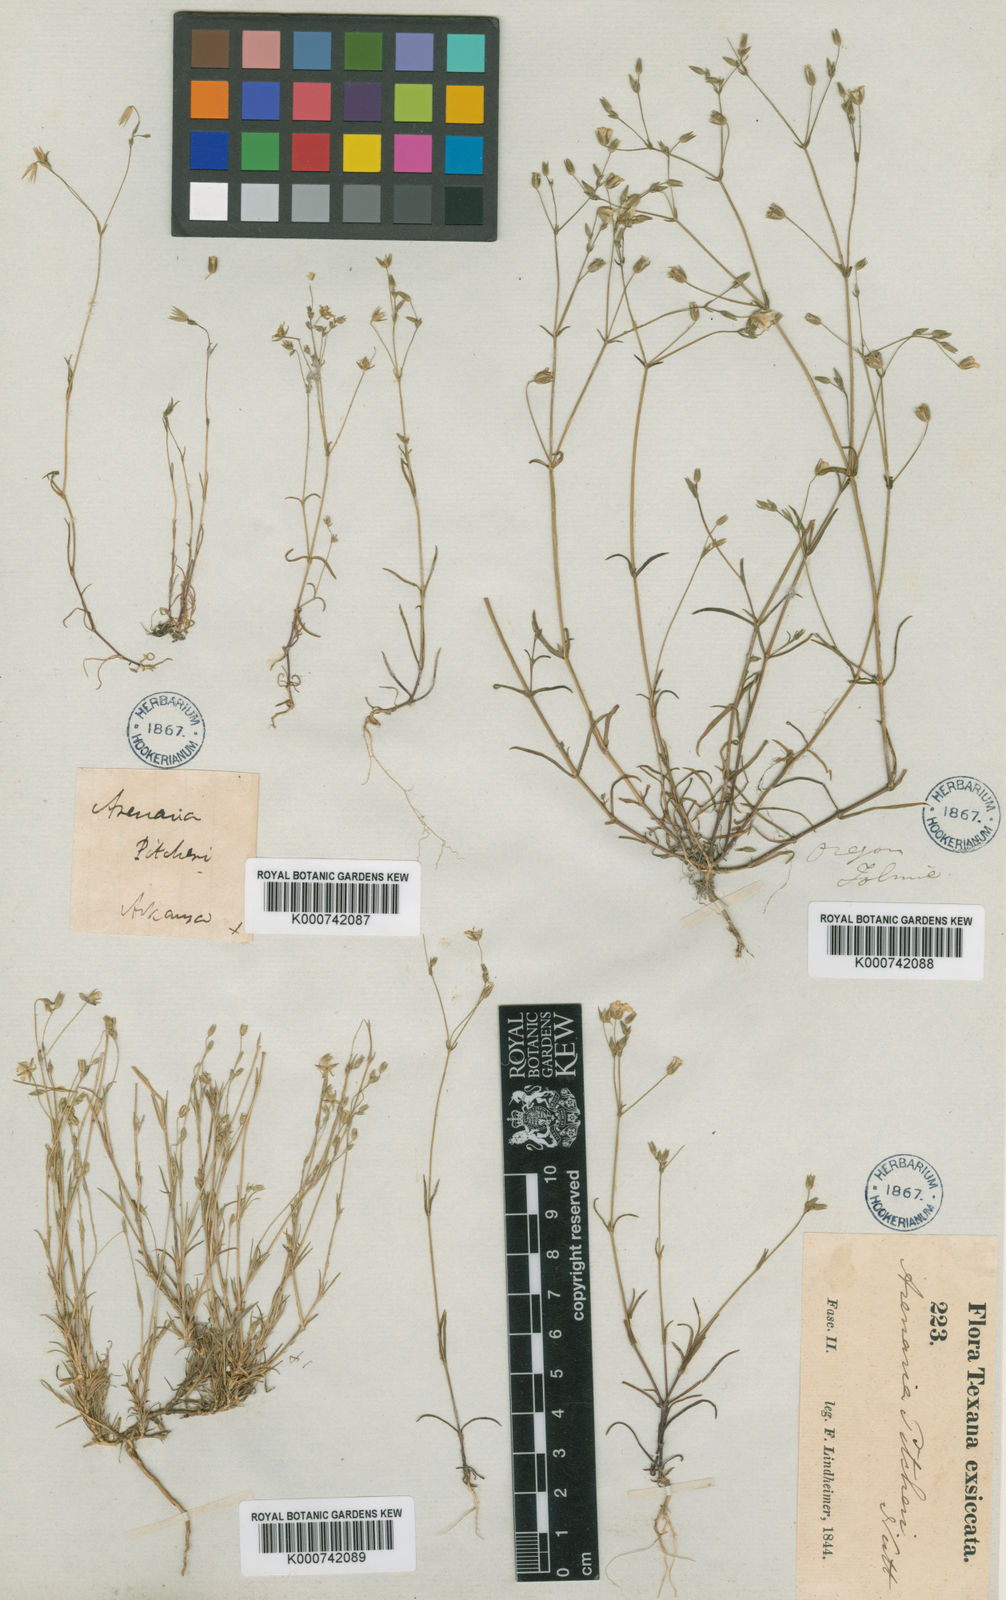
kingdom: Plantae
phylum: Tracheophyta
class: Magnoliopsida
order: Caryophyllales
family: Caryophyllaceae
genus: Mononeuria
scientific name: Mononeuria patula
